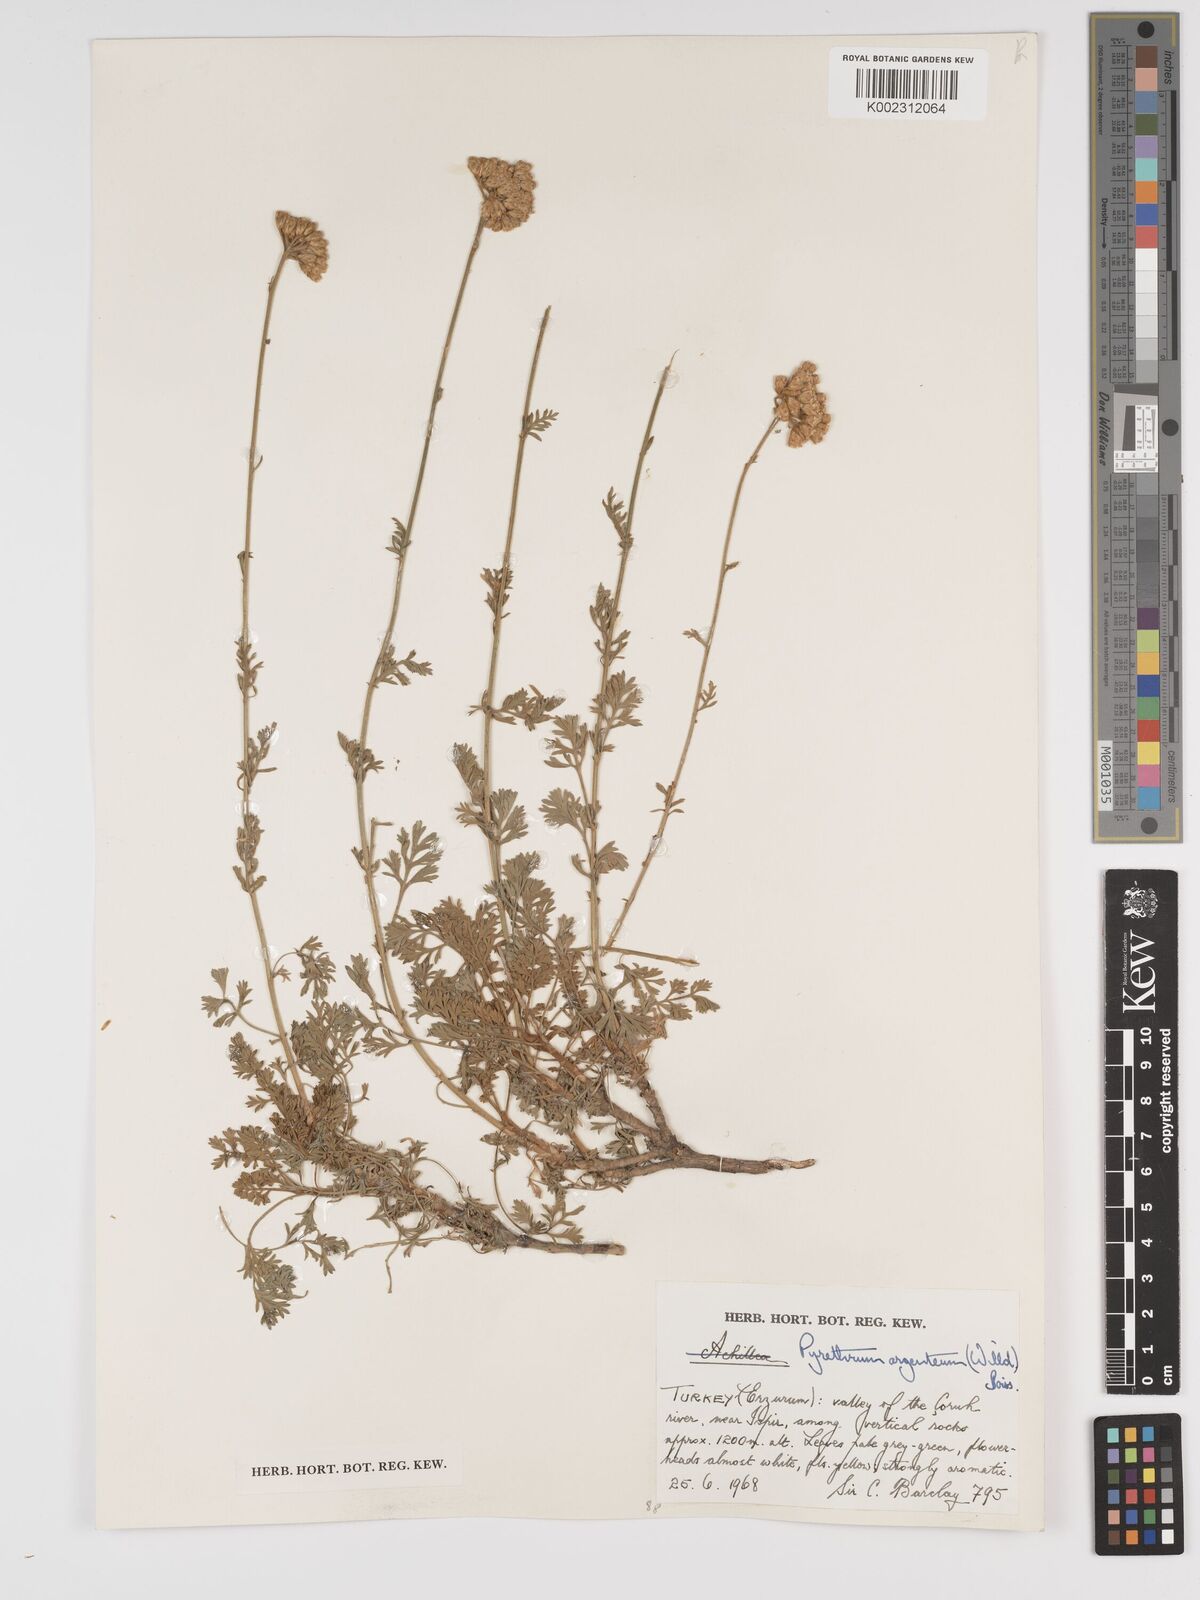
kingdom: Plantae
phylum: Tracheophyta
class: Magnoliopsida
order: Asterales
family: Asteraceae
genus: Tanacetum
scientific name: Tanacetum argenteum
